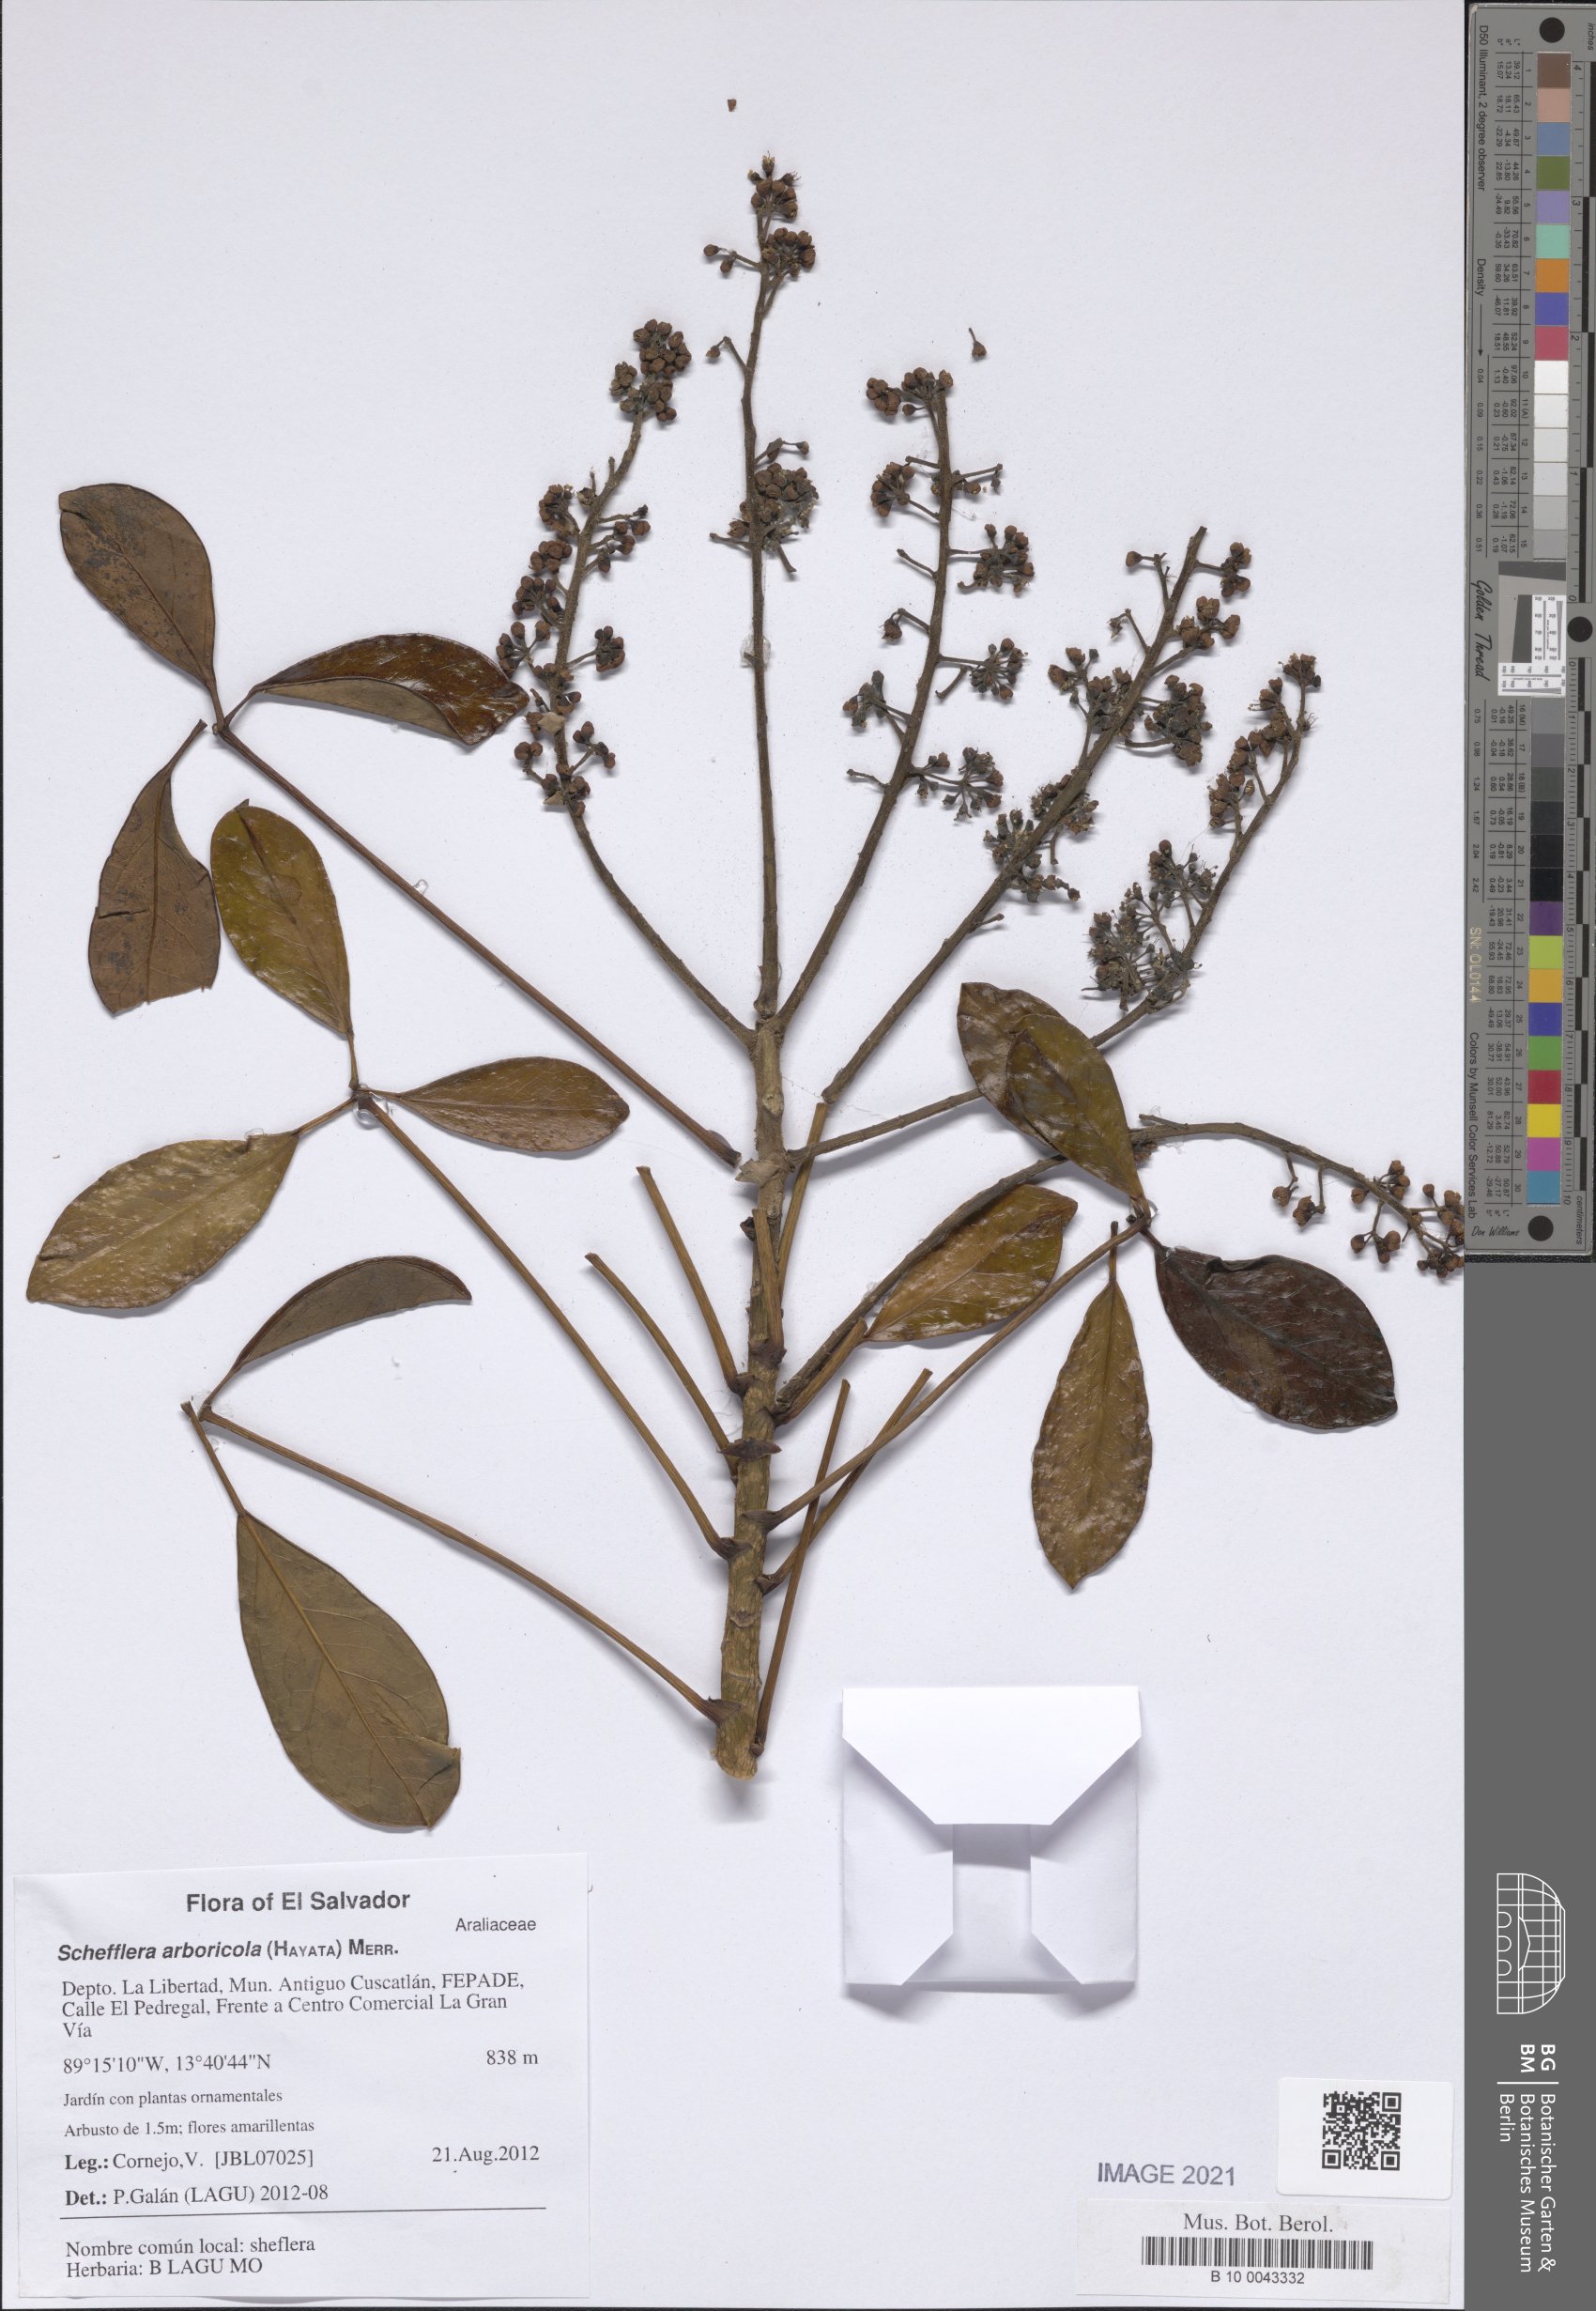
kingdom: Plantae
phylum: Tracheophyta
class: Magnoliopsida
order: Apiales
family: Araliaceae
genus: Heptapleurum
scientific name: Heptapleurum arboricola
